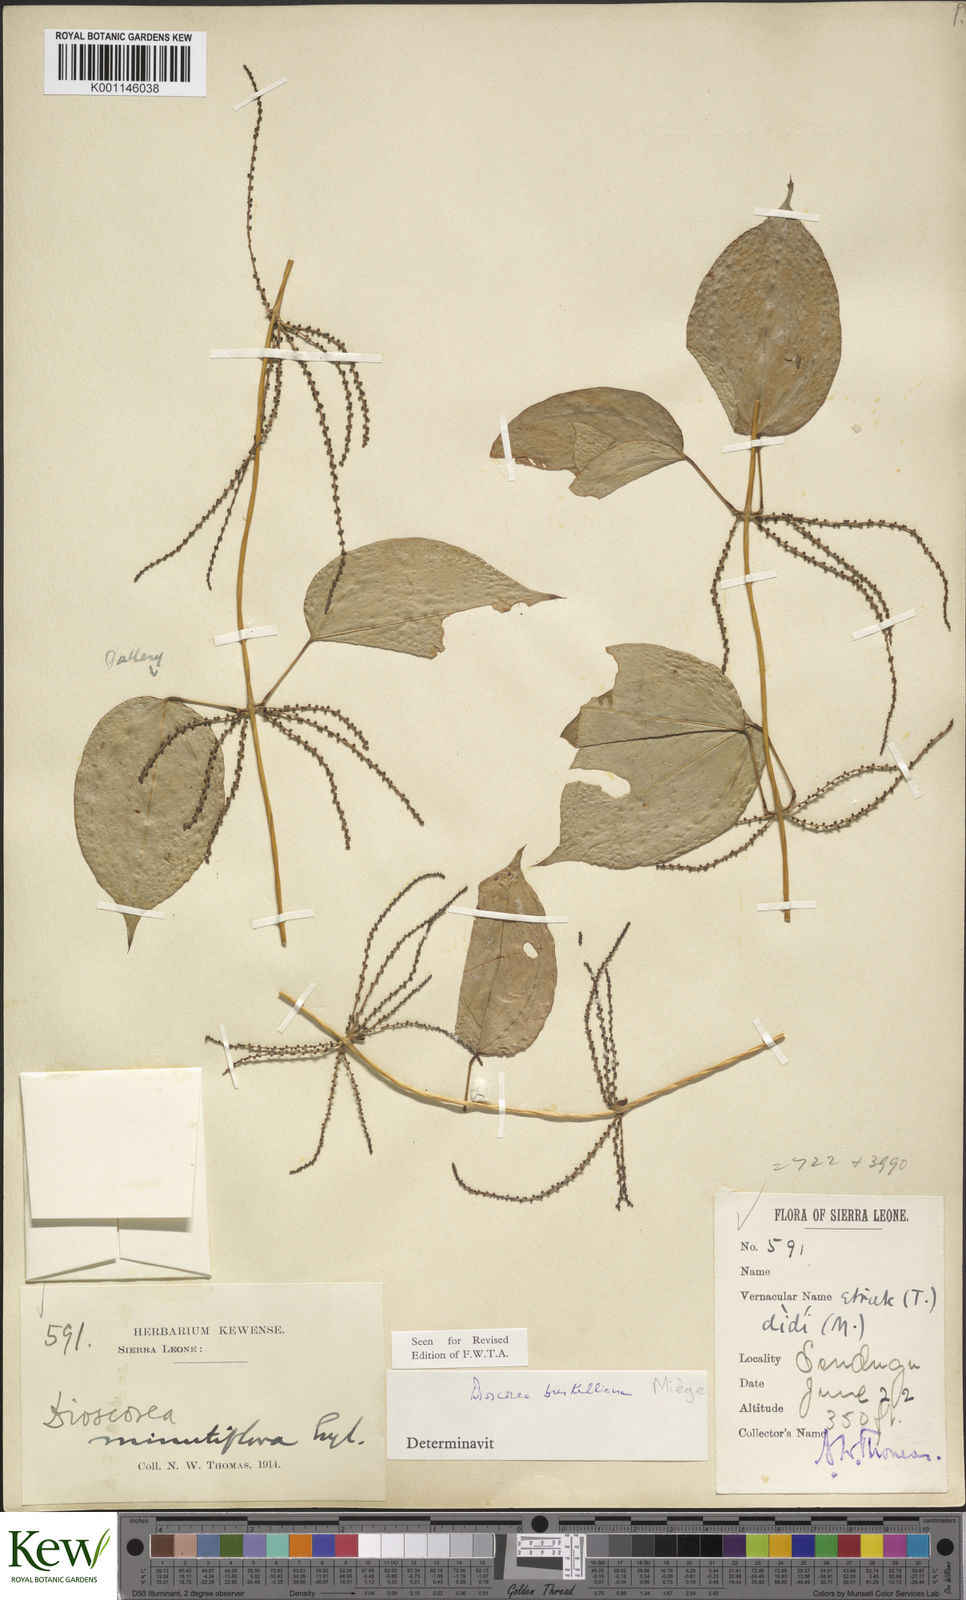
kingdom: Plantae
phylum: Tracheophyta
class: Liliopsida
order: Dioscoreales
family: Dioscoreaceae
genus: Dioscorea
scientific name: Dioscorea
